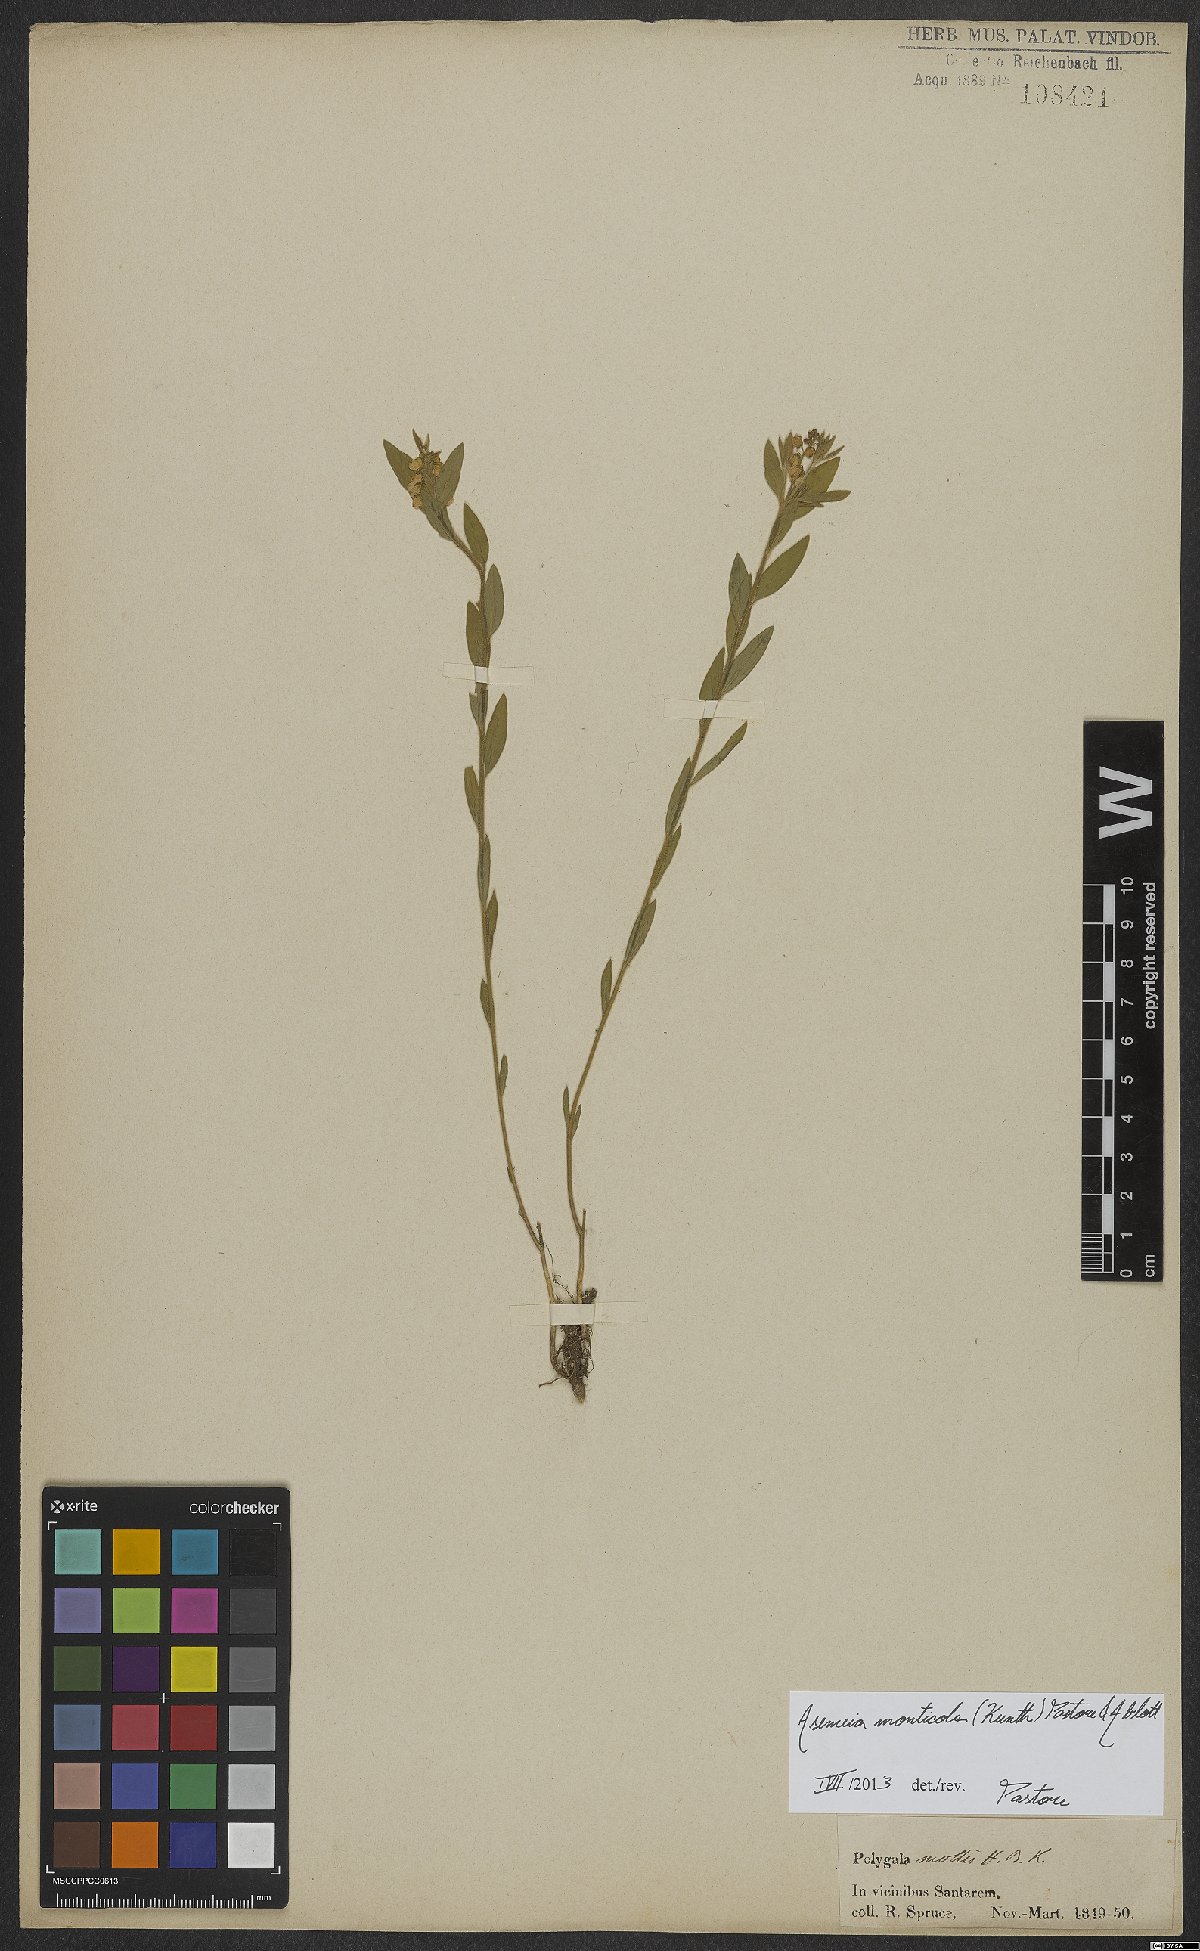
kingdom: Plantae
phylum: Tracheophyta
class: Magnoliopsida
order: Fabales
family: Polygalaceae
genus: Asemeia
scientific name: Asemeia monticola
